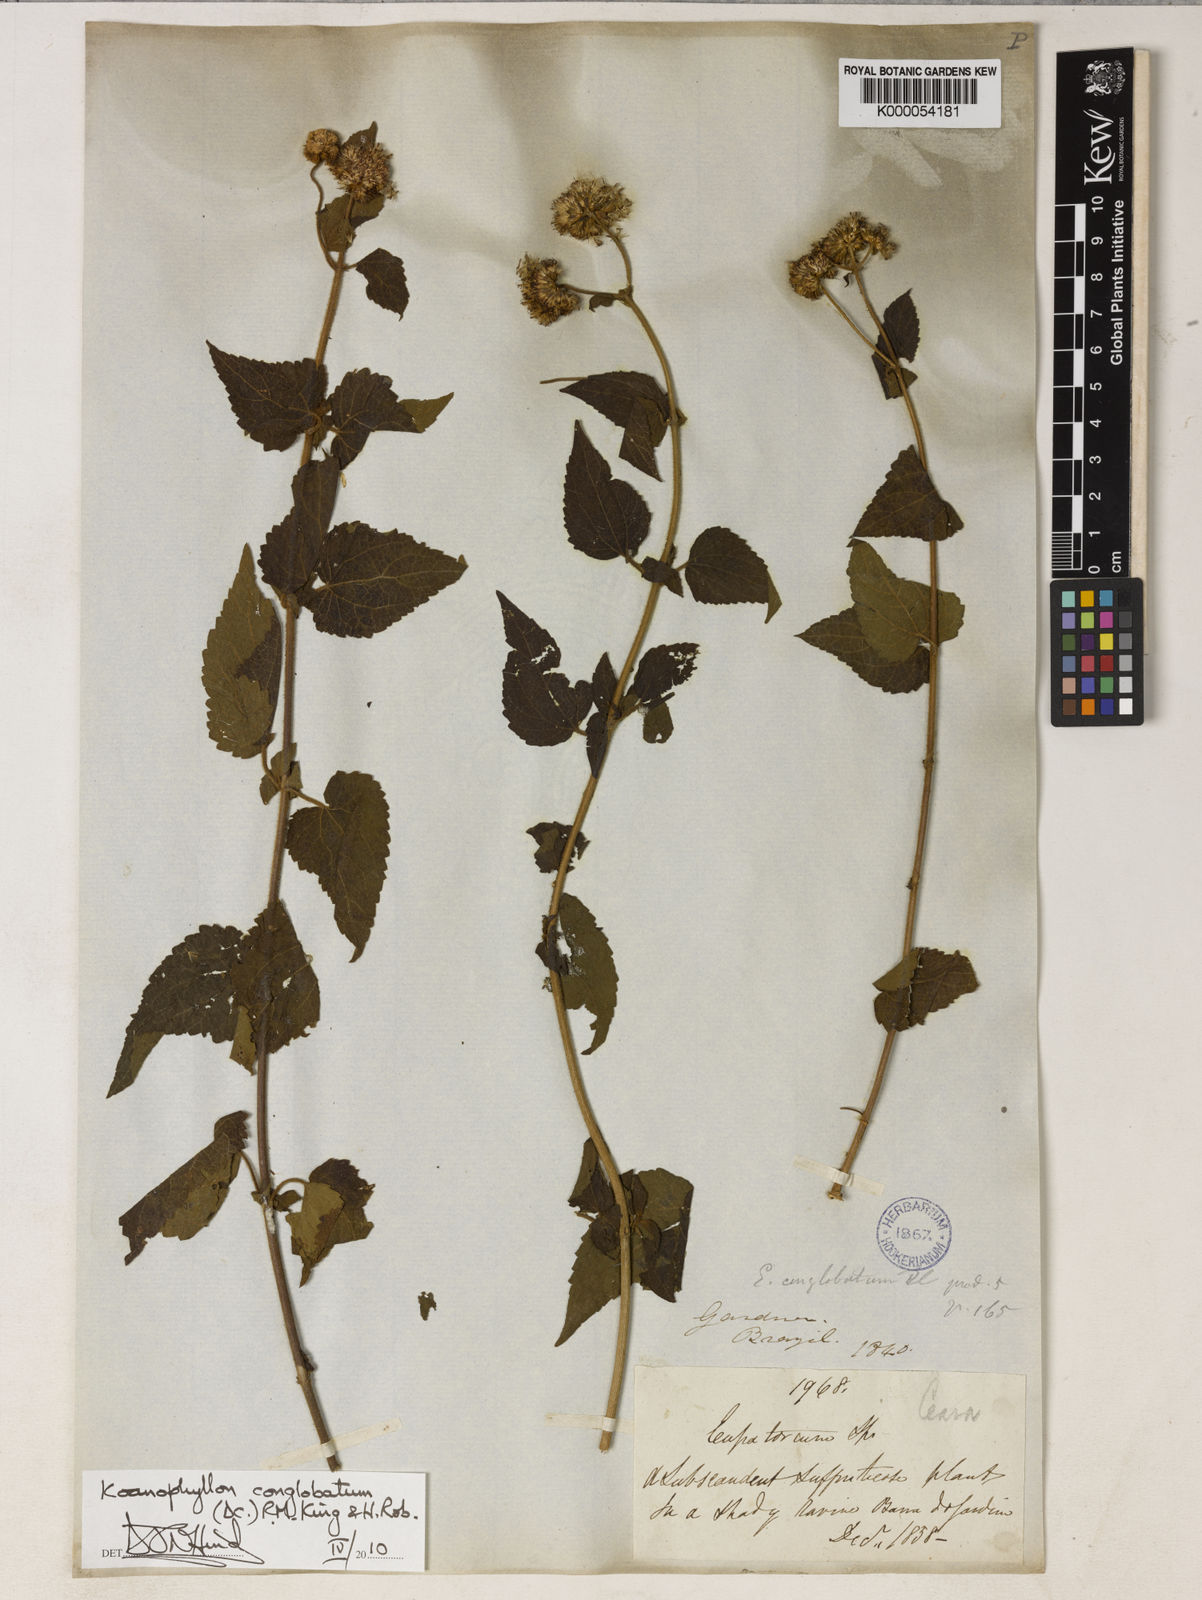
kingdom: Plantae
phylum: Tracheophyta
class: Magnoliopsida
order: Asterales
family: Asteraceae
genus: Koanophyllon
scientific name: Koanophyllon conglobatum
